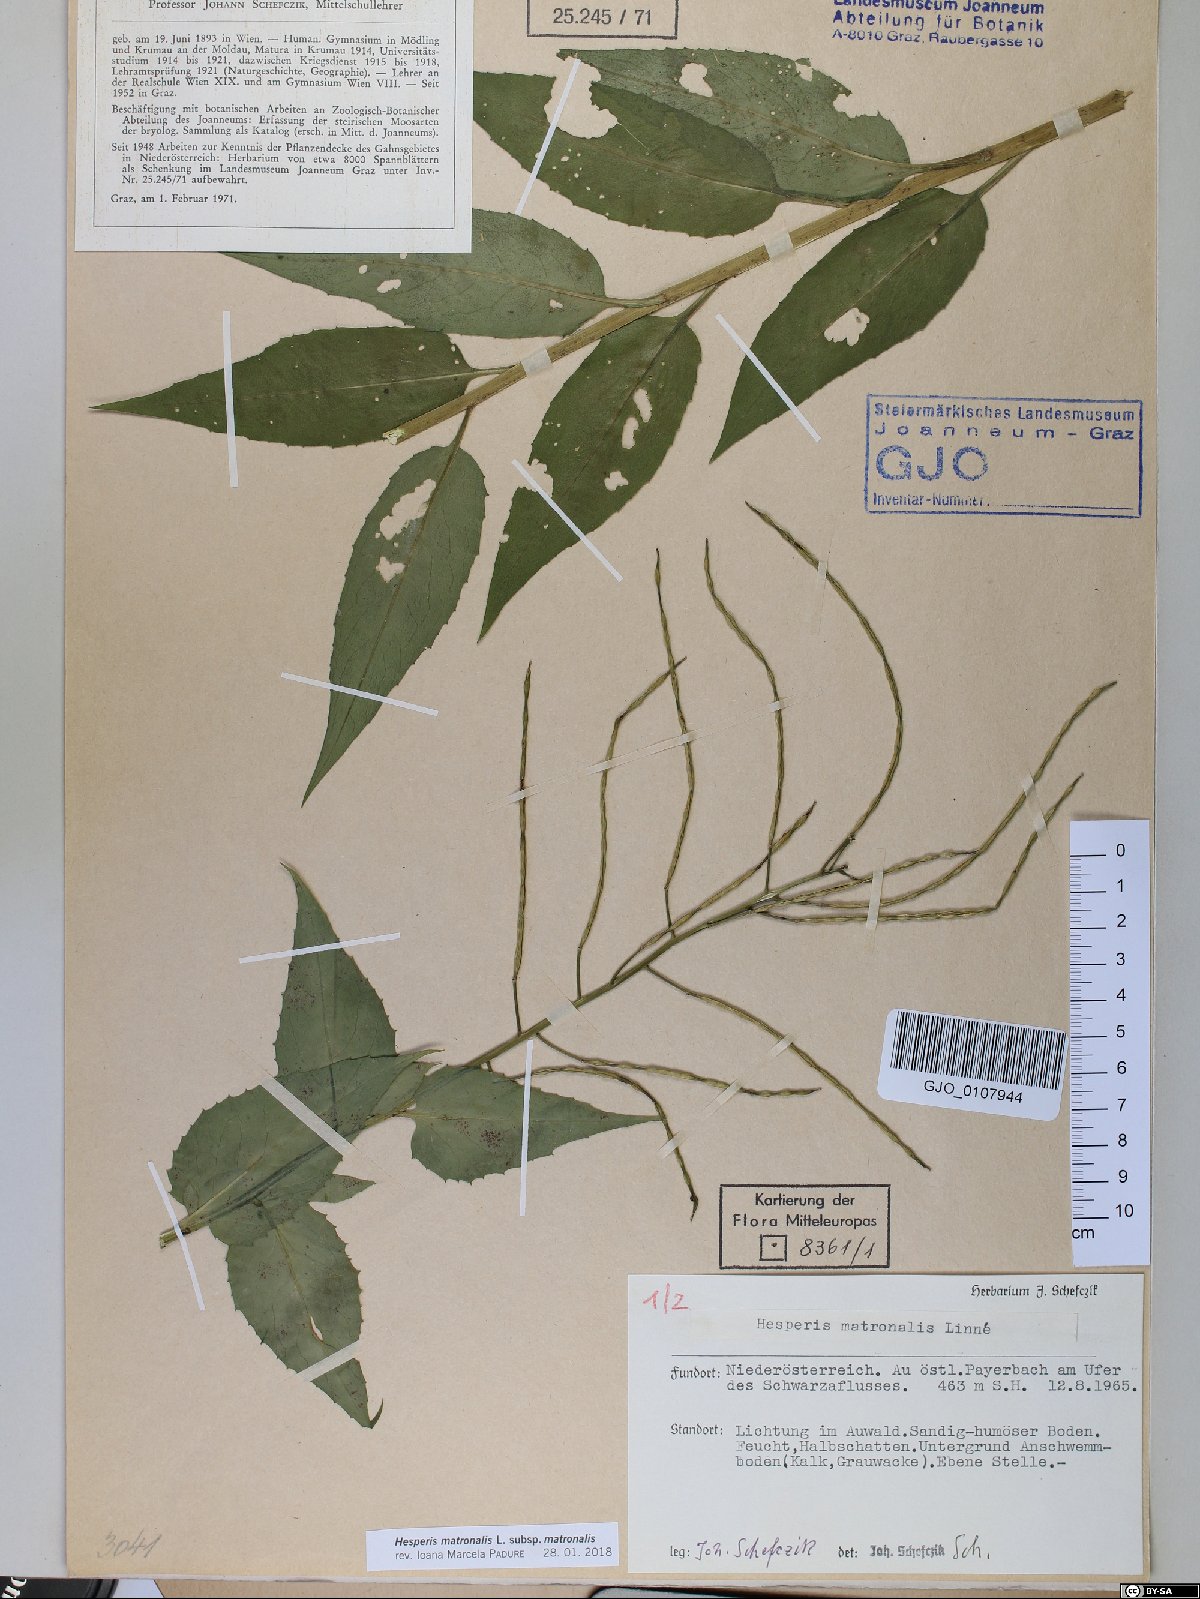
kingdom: Plantae
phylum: Tracheophyta
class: Magnoliopsida
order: Brassicales
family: Brassicaceae
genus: Hesperis
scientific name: Hesperis matronalis
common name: Dame's-violet
